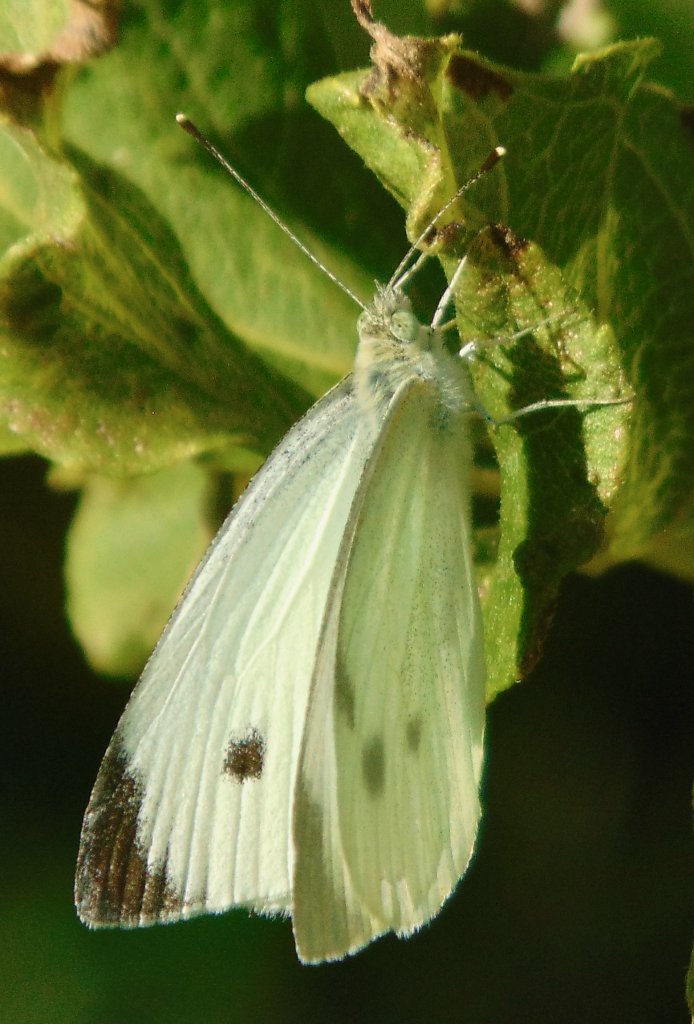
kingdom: Animalia
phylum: Arthropoda
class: Insecta
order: Lepidoptera
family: Pieridae
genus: Pieris
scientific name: Pieris rapae
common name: Cabbage White
